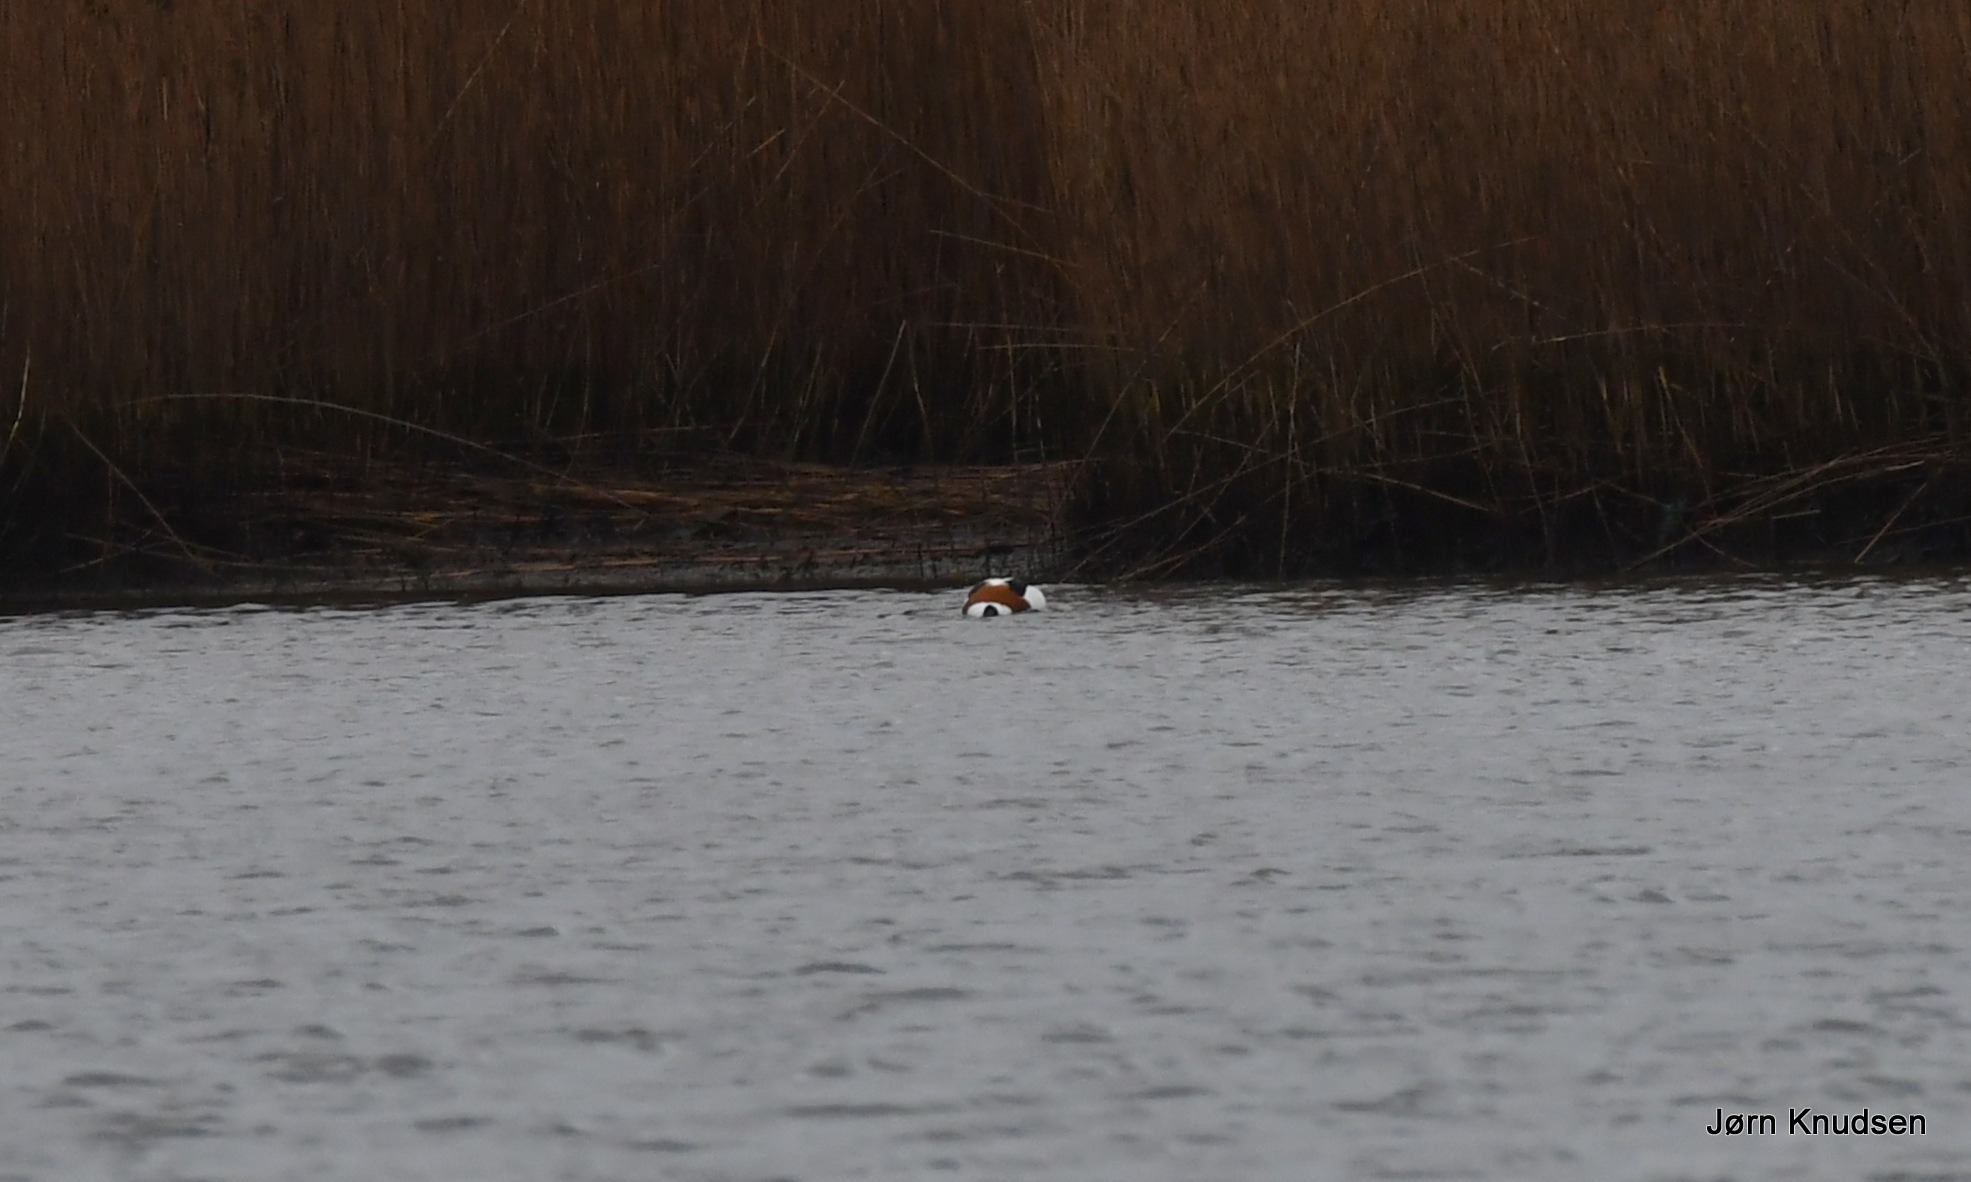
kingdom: Animalia
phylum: Chordata
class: Aves
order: Anseriformes
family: Anatidae
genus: Tadorna
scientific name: Tadorna tadorna
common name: Gravand
